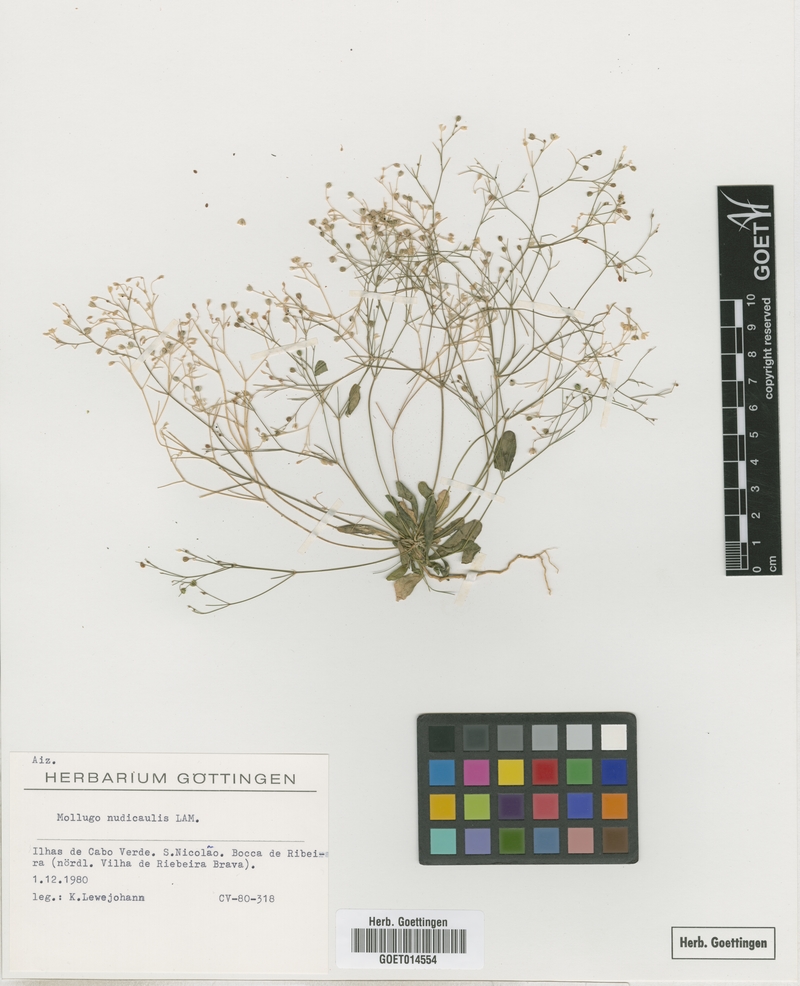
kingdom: Plantae
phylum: Tracheophyta
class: Magnoliopsida
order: Caryophyllales
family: Molluginaceae
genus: Paramollugo
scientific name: Paramollugo nudicaulis
